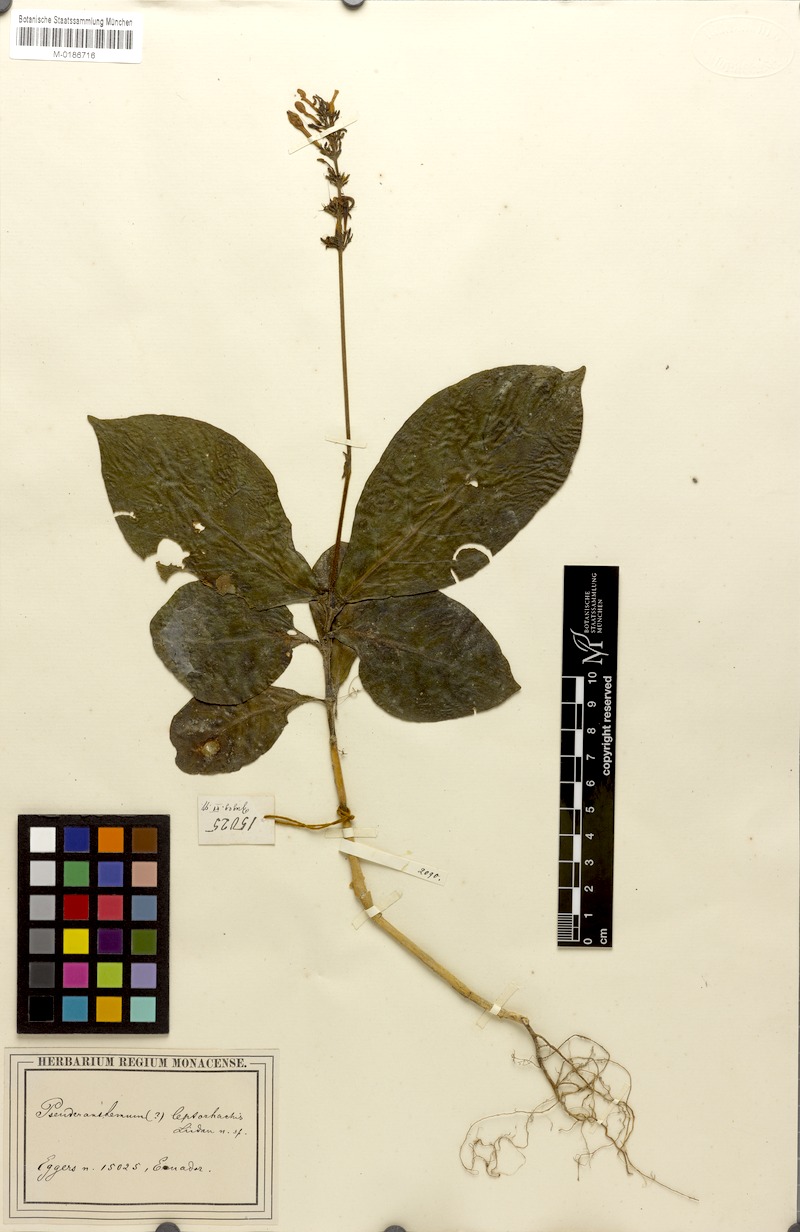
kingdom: Plantae
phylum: Tracheophyta
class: Magnoliopsida
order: Lamiales
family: Acanthaceae
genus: Pseuderanthemum
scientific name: Pseuderanthemum leptorhachis
